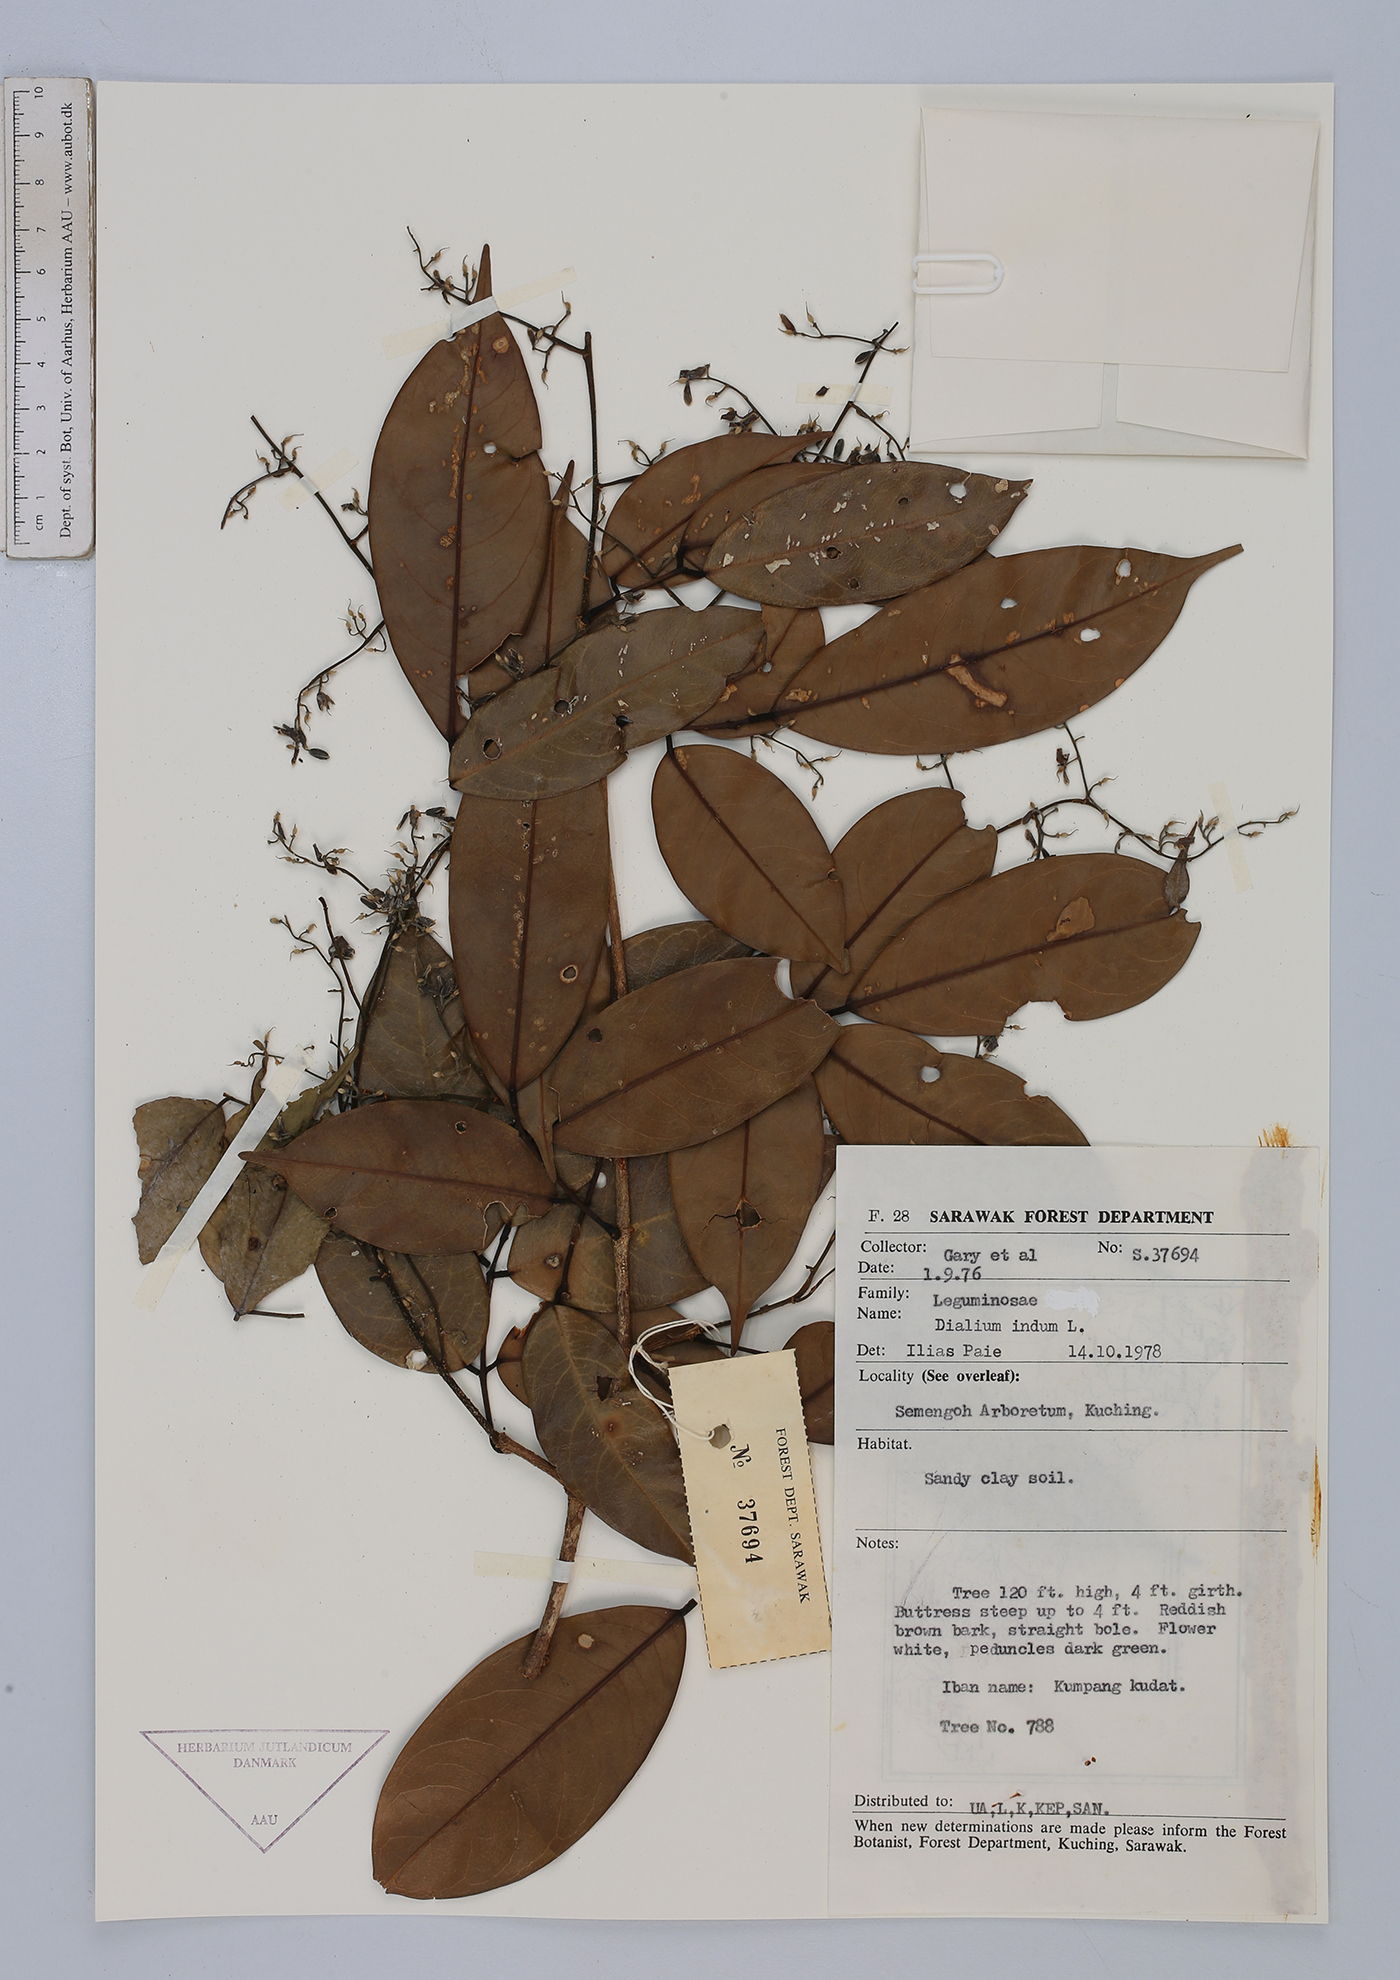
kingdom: Plantae
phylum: Tracheophyta
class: Magnoliopsida
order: Fabales
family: Fabaceae
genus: Dialium
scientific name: Dialium indum
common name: Tamarind-plum
